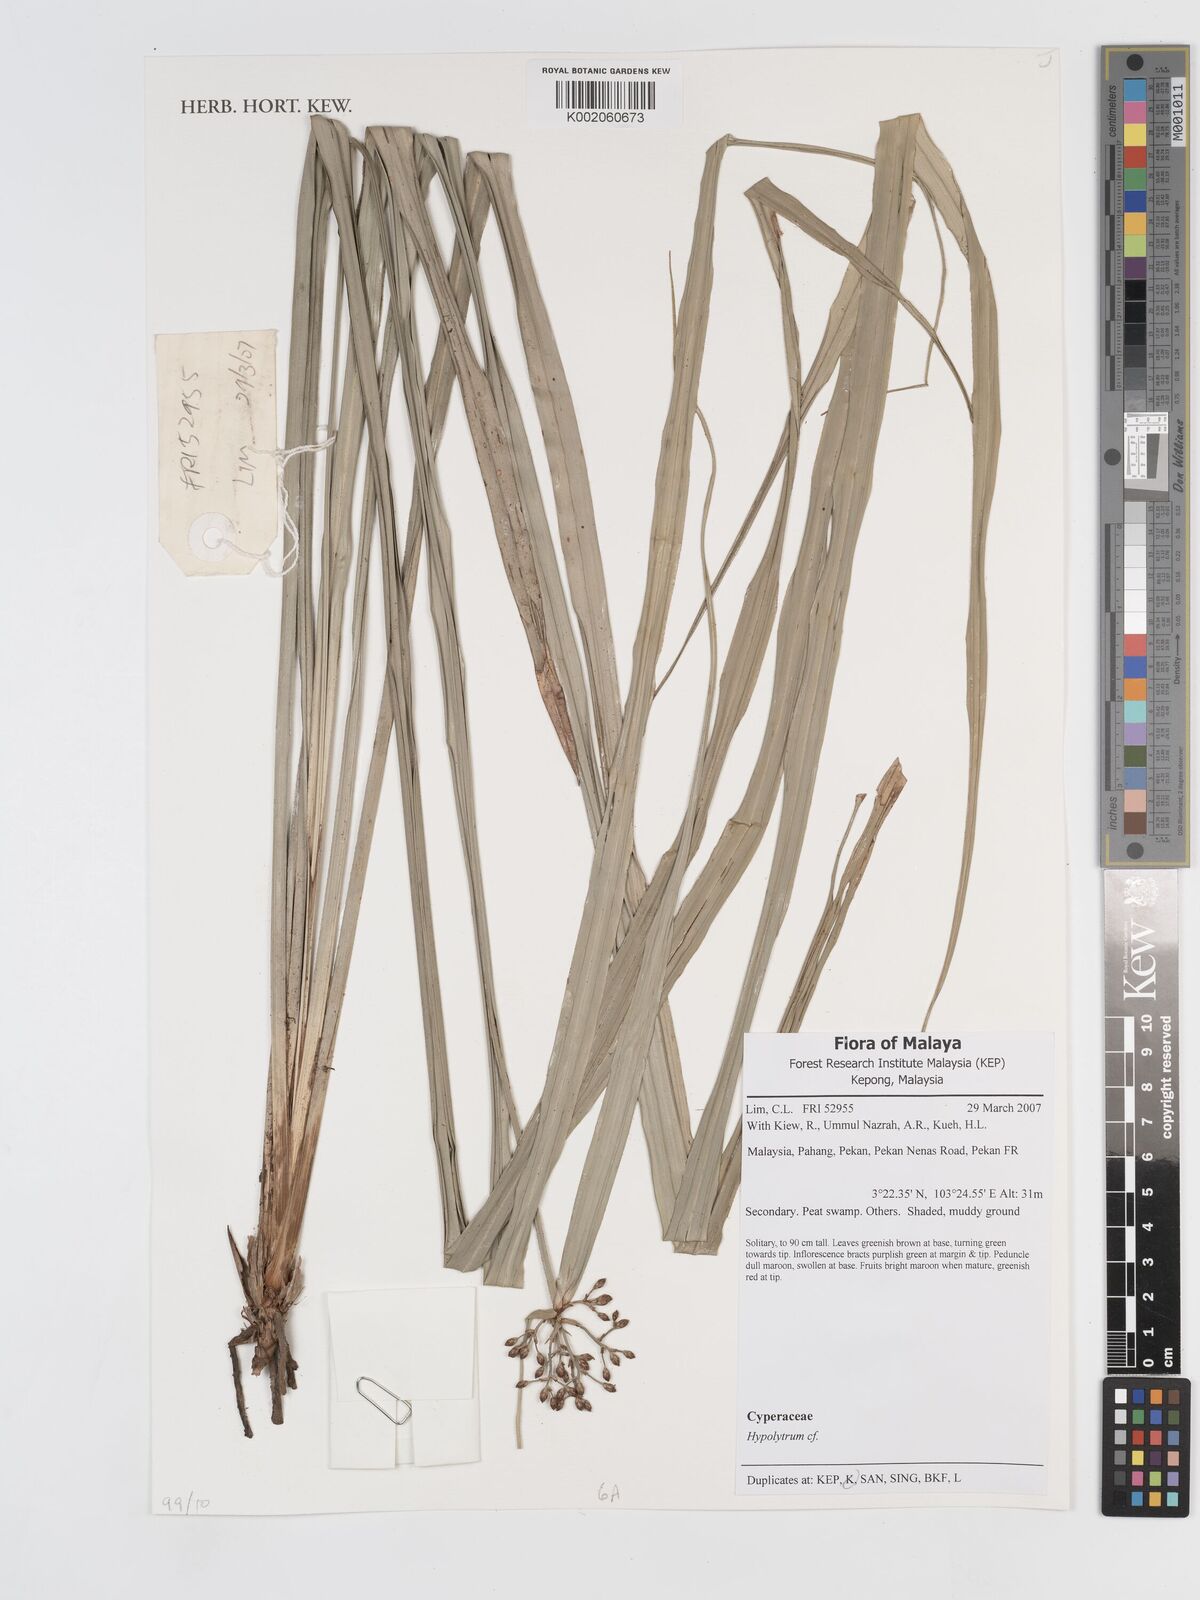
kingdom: Plantae
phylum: Tracheophyta
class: Liliopsida
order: Poales
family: Cyperaceae
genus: Hypolytrum
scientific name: Hypolytrum nemorum
